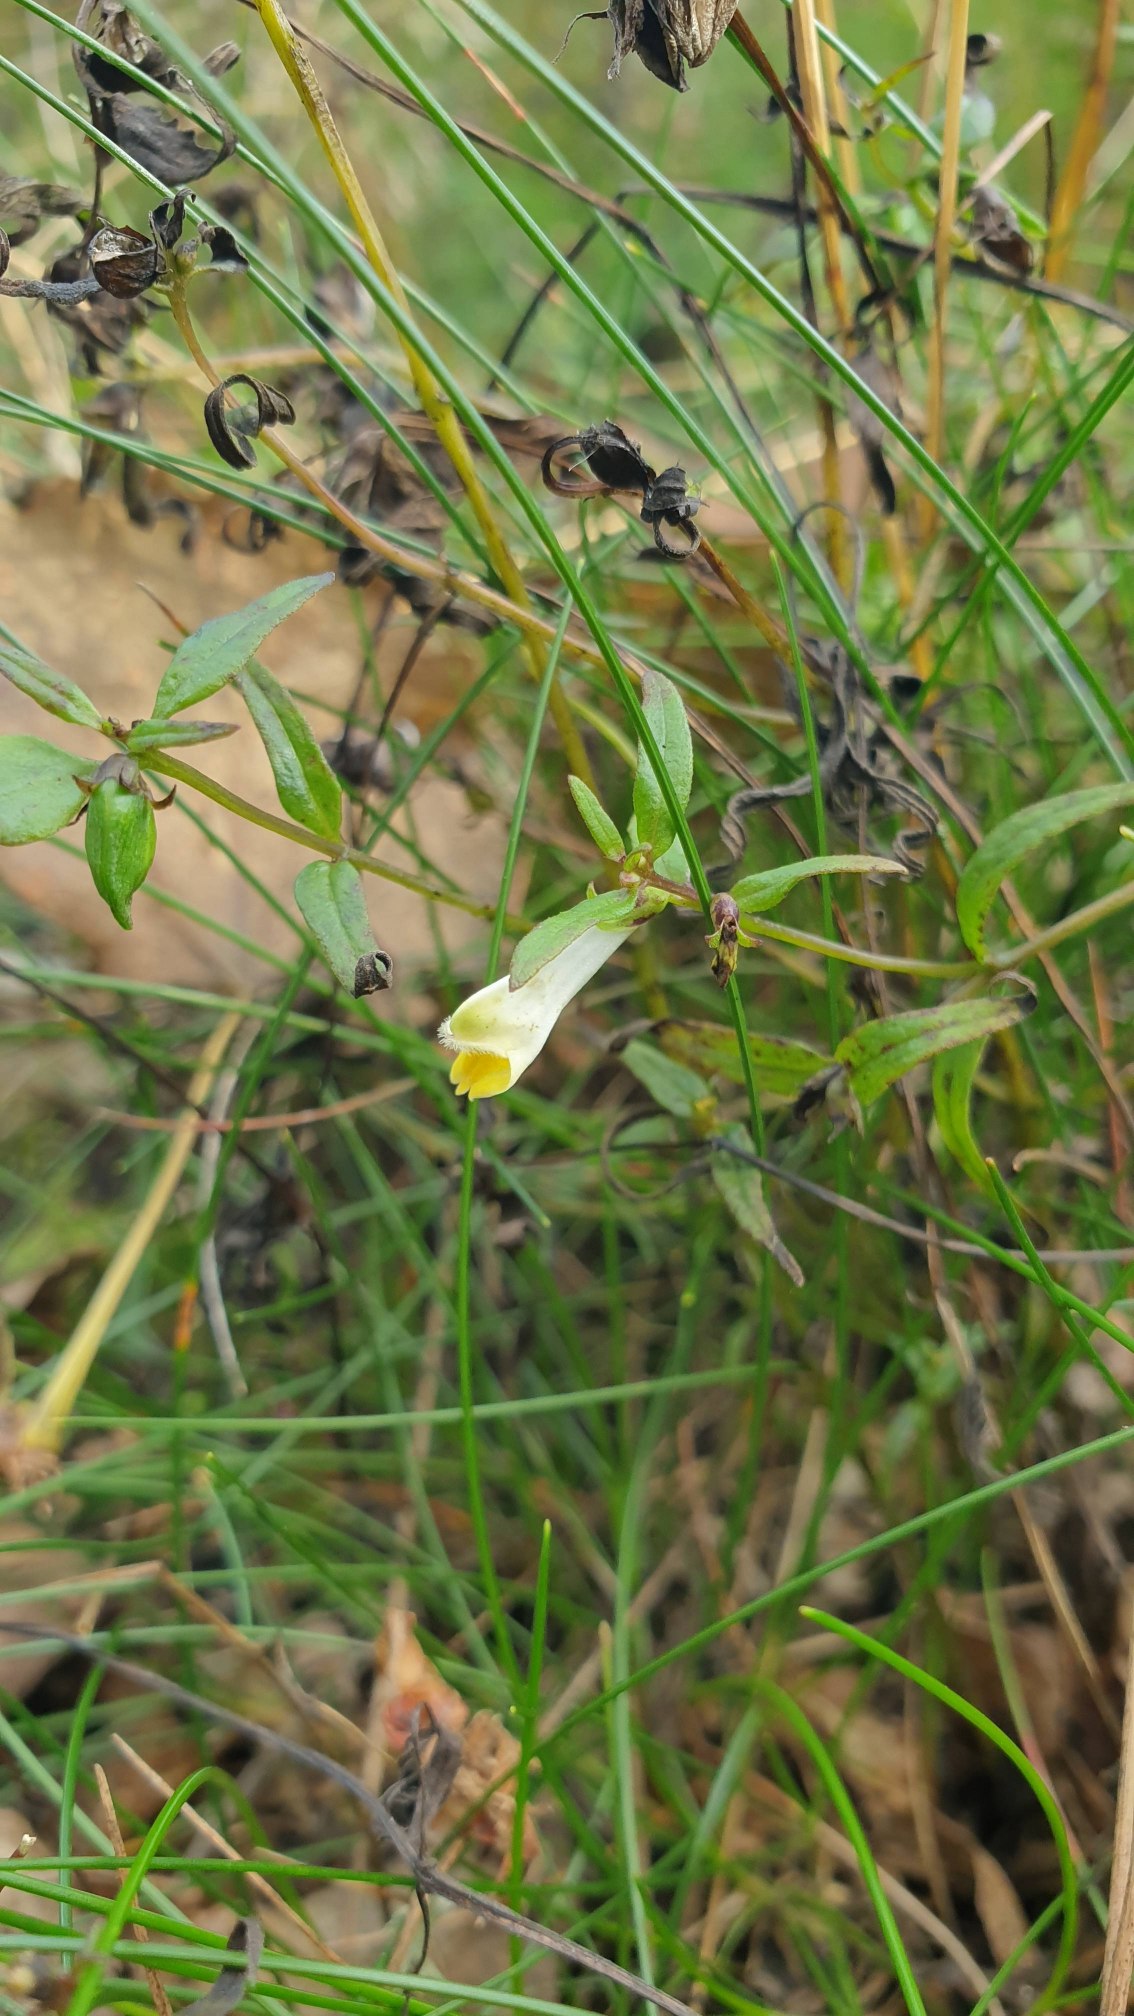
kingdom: Plantae
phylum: Tracheophyta
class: Magnoliopsida
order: Lamiales
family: Orobanchaceae
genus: Melampyrum
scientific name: Melampyrum pratense
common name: Almindelig kohvede
